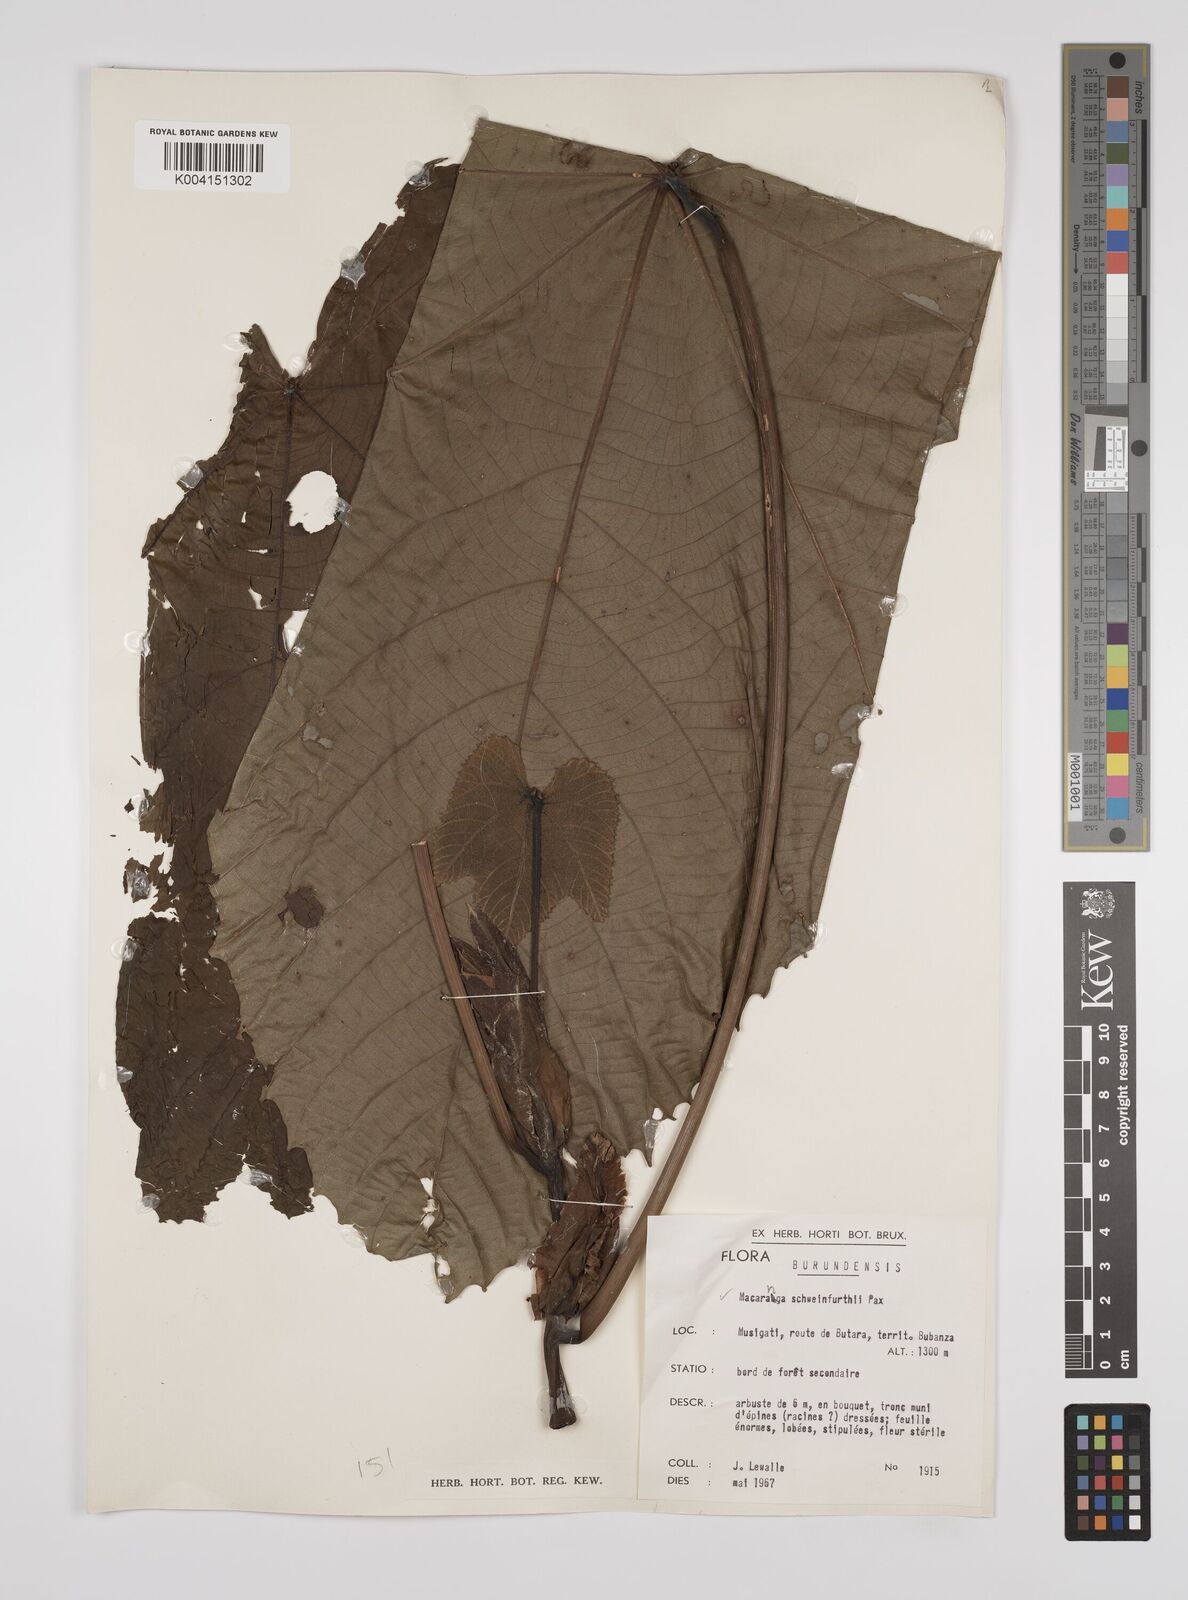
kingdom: Plantae
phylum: Tracheophyta
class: Magnoliopsida
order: Malpighiales
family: Euphorbiaceae
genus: Macaranga
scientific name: Macaranga schweinfurthii
